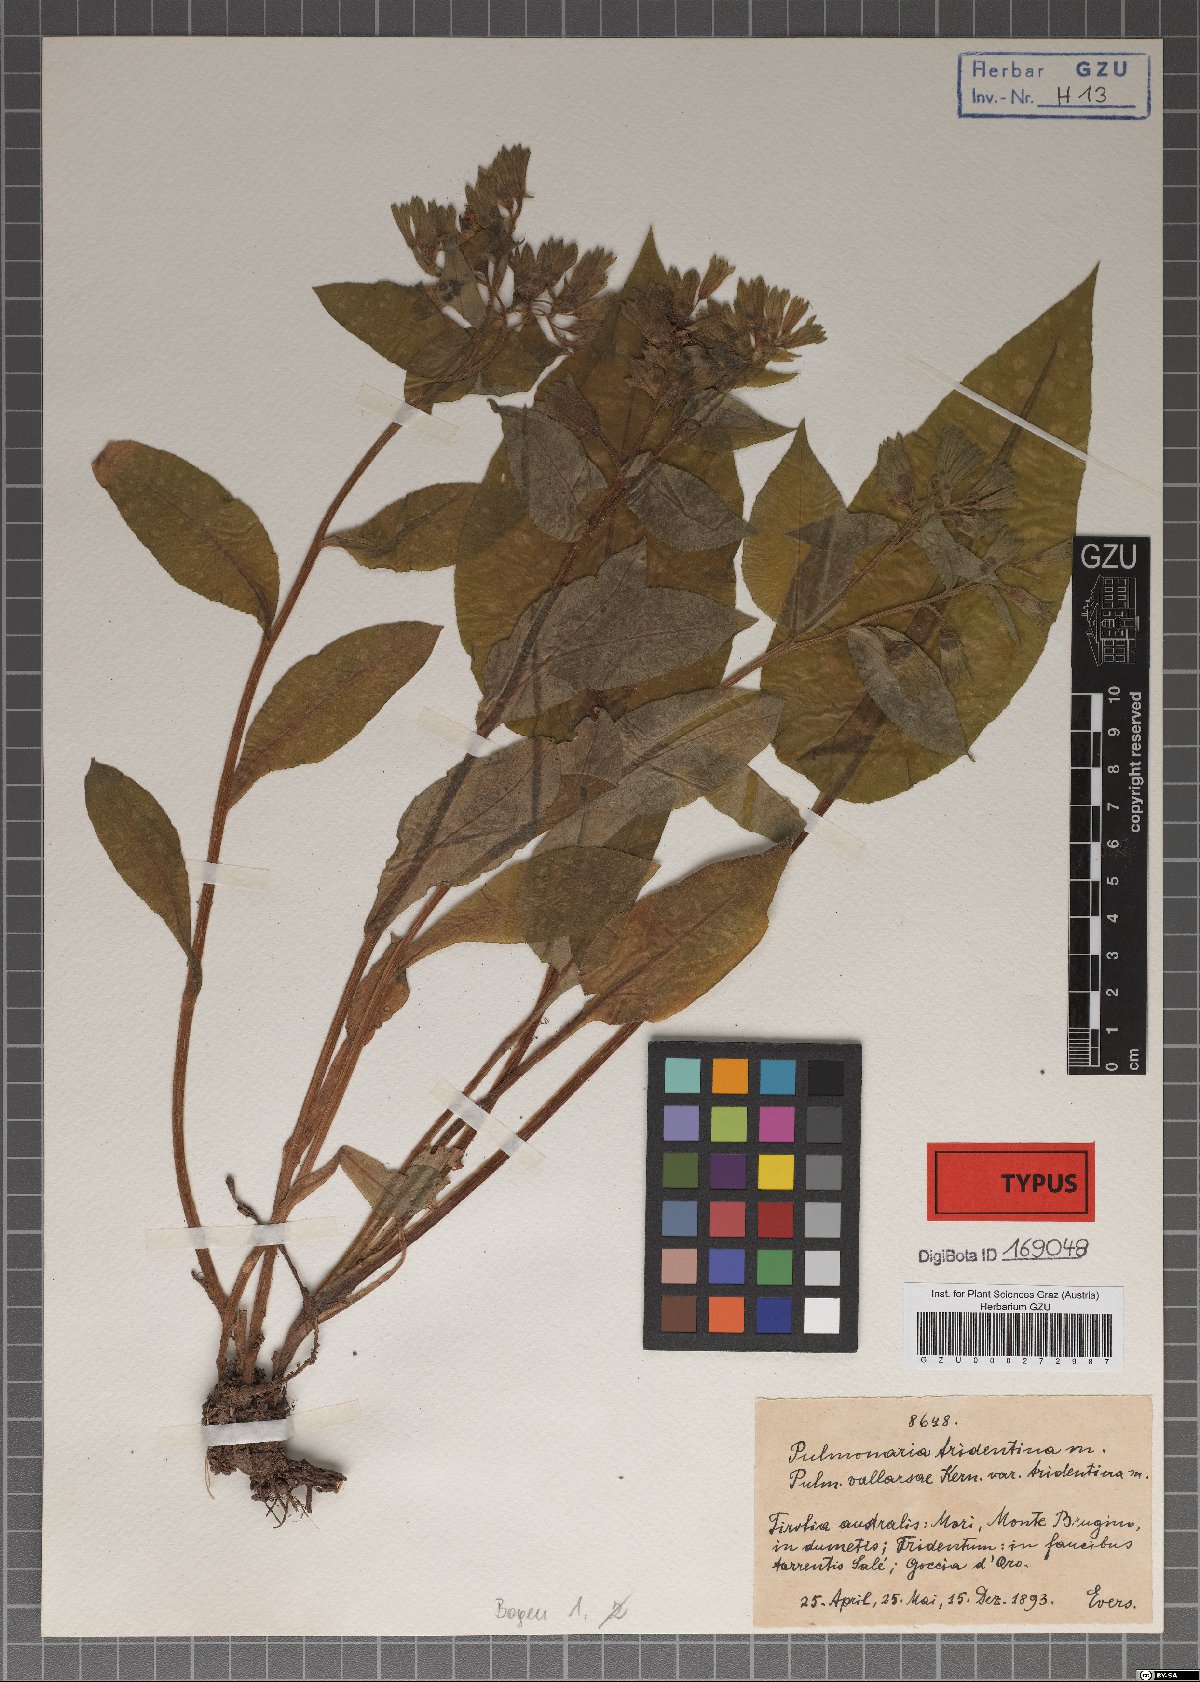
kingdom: Plantae
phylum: Tracheophyta
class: Magnoliopsida
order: Boraginales
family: Boraginaceae
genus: Pulmonaria
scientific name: Pulmonaria officinalis
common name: Lungwort
